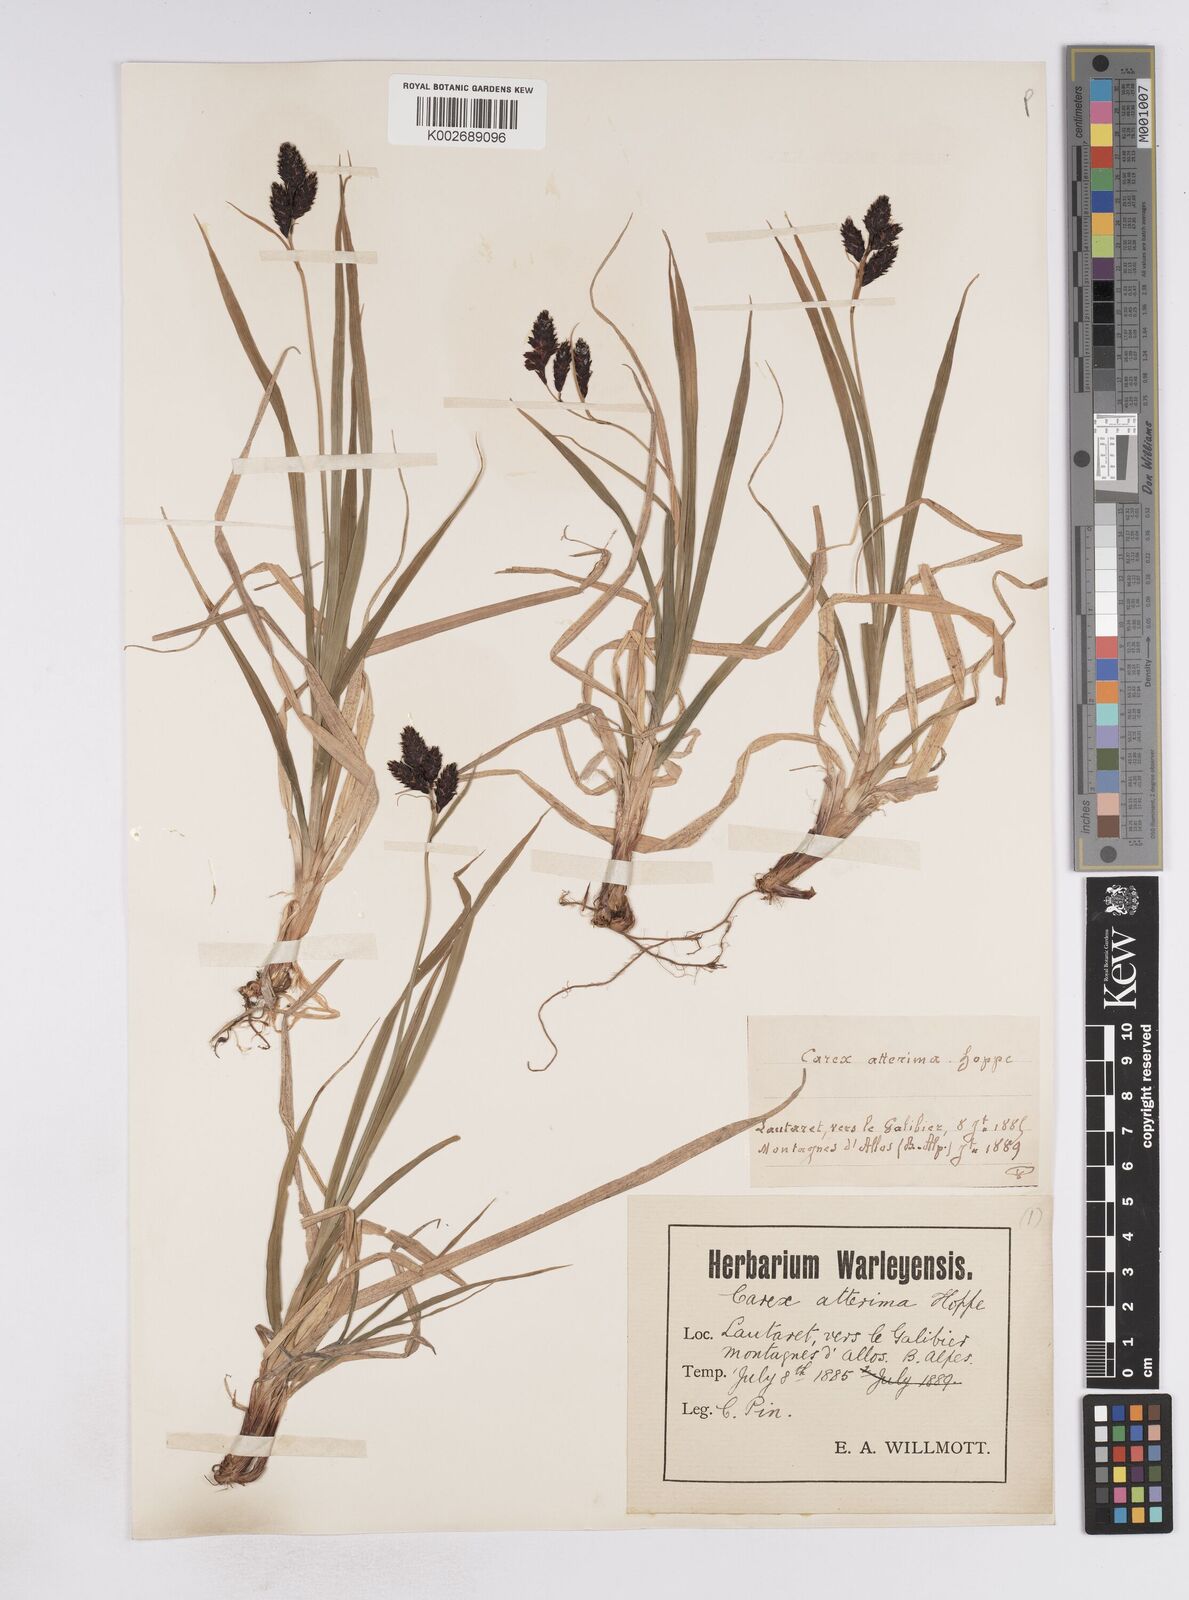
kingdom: Plantae
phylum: Tracheophyta
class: Liliopsida
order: Poales
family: Cyperaceae
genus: Carex
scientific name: Carex atrata
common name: Black alpine sedge
